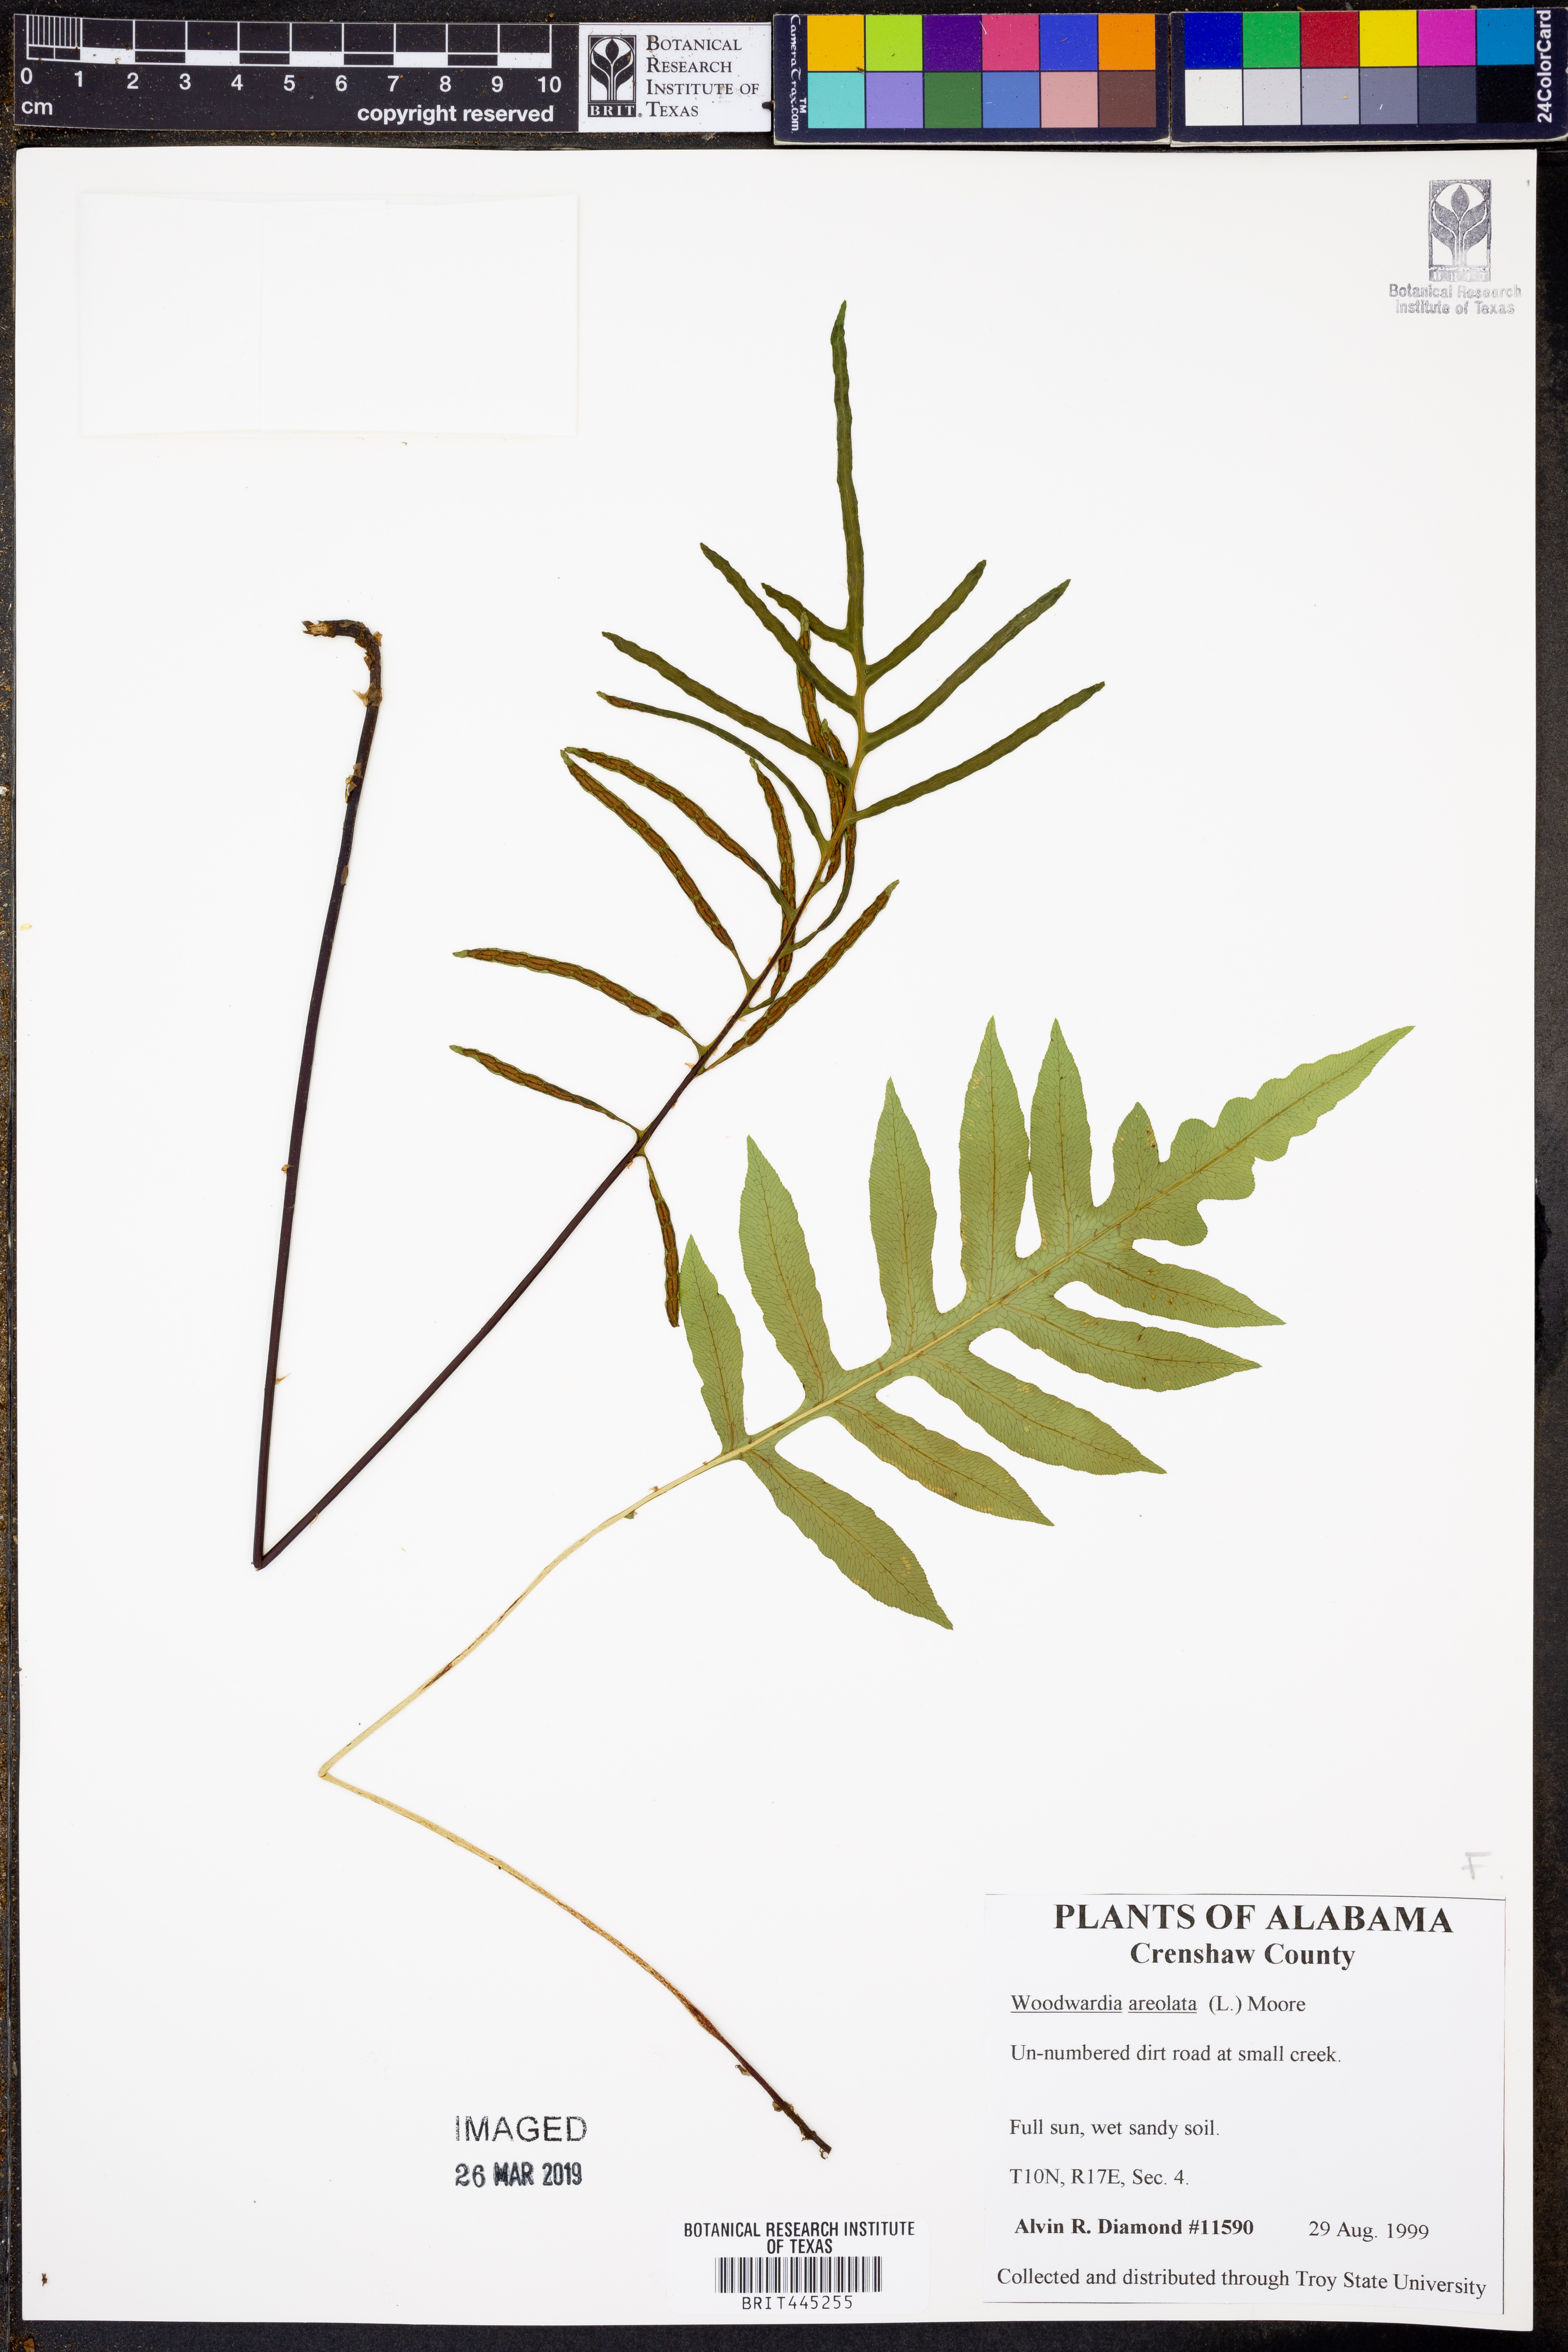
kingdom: Plantae
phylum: Tracheophyta
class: Polypodiopsida
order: Polypodiales
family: Blechnaceae
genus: Lorinseria
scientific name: Lorinseria areolata
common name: Dwarf chain fern
